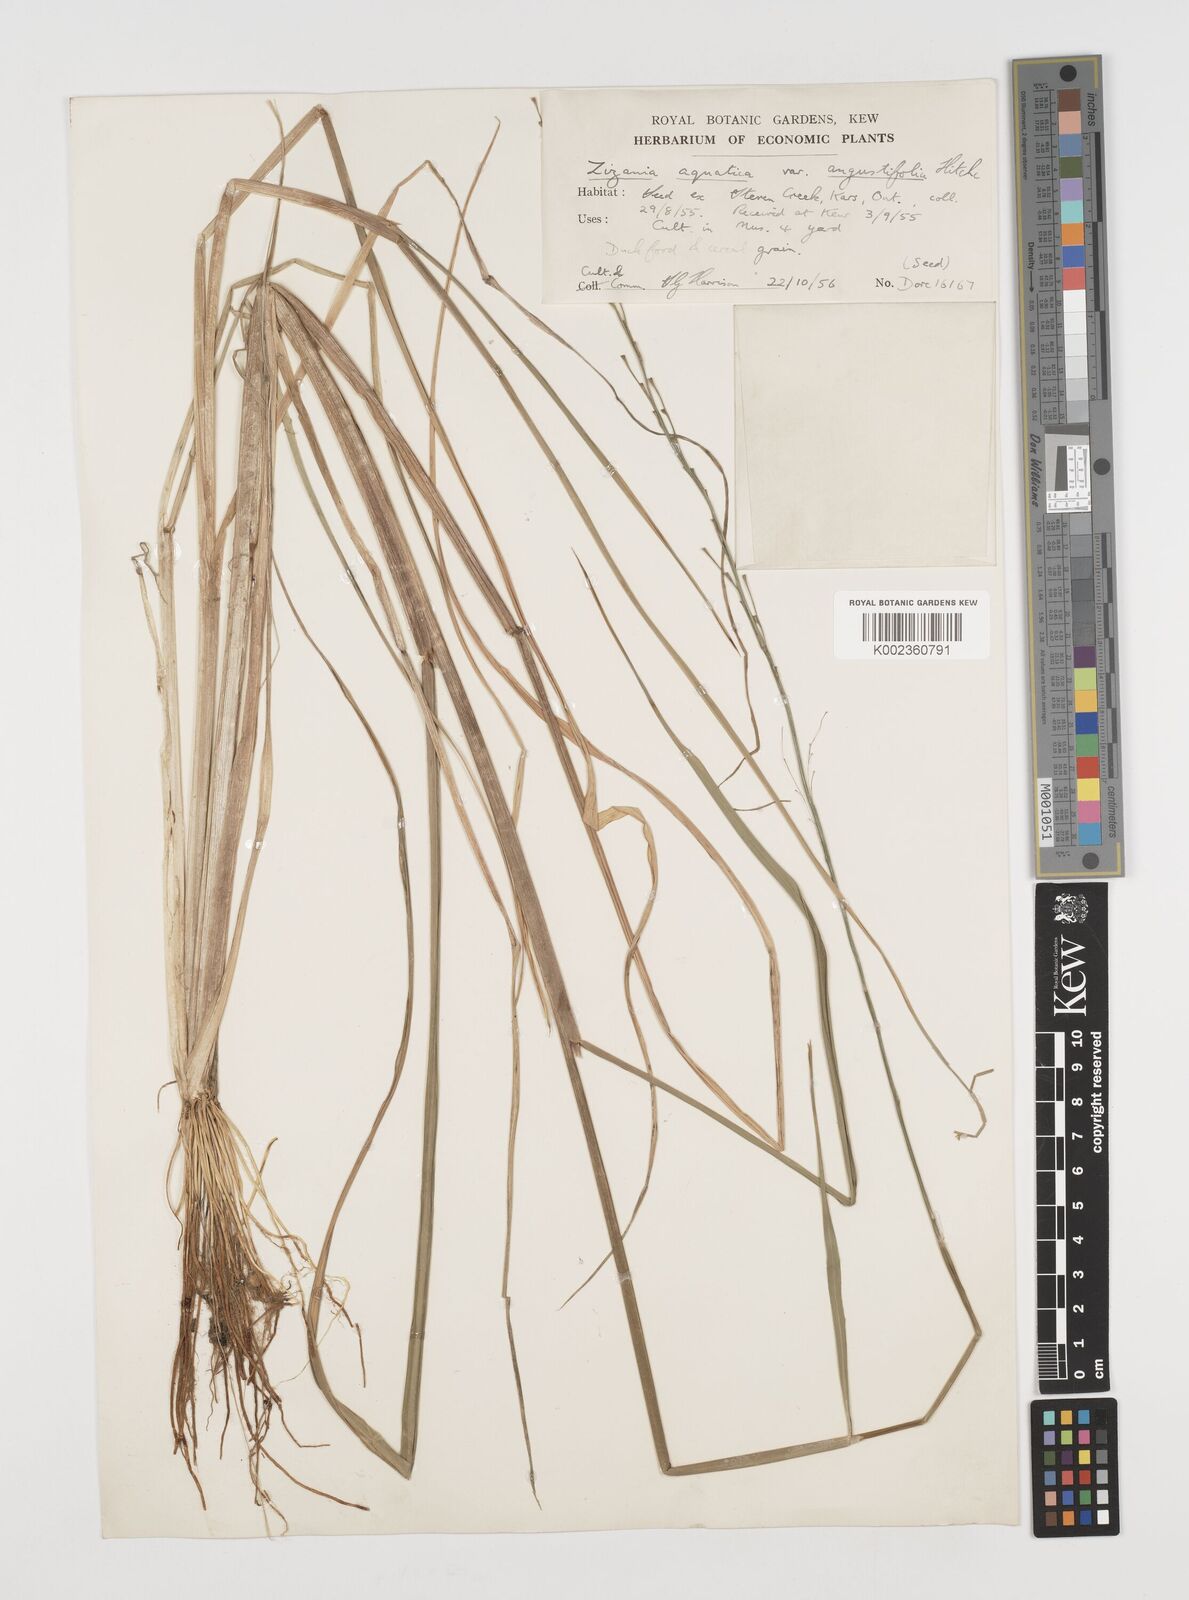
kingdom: Plantae
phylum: Tracheophyta
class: Liliopsida
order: Poales
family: Poaceae
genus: Zizania
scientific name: Zizania aquatica
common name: Annual wildrice
